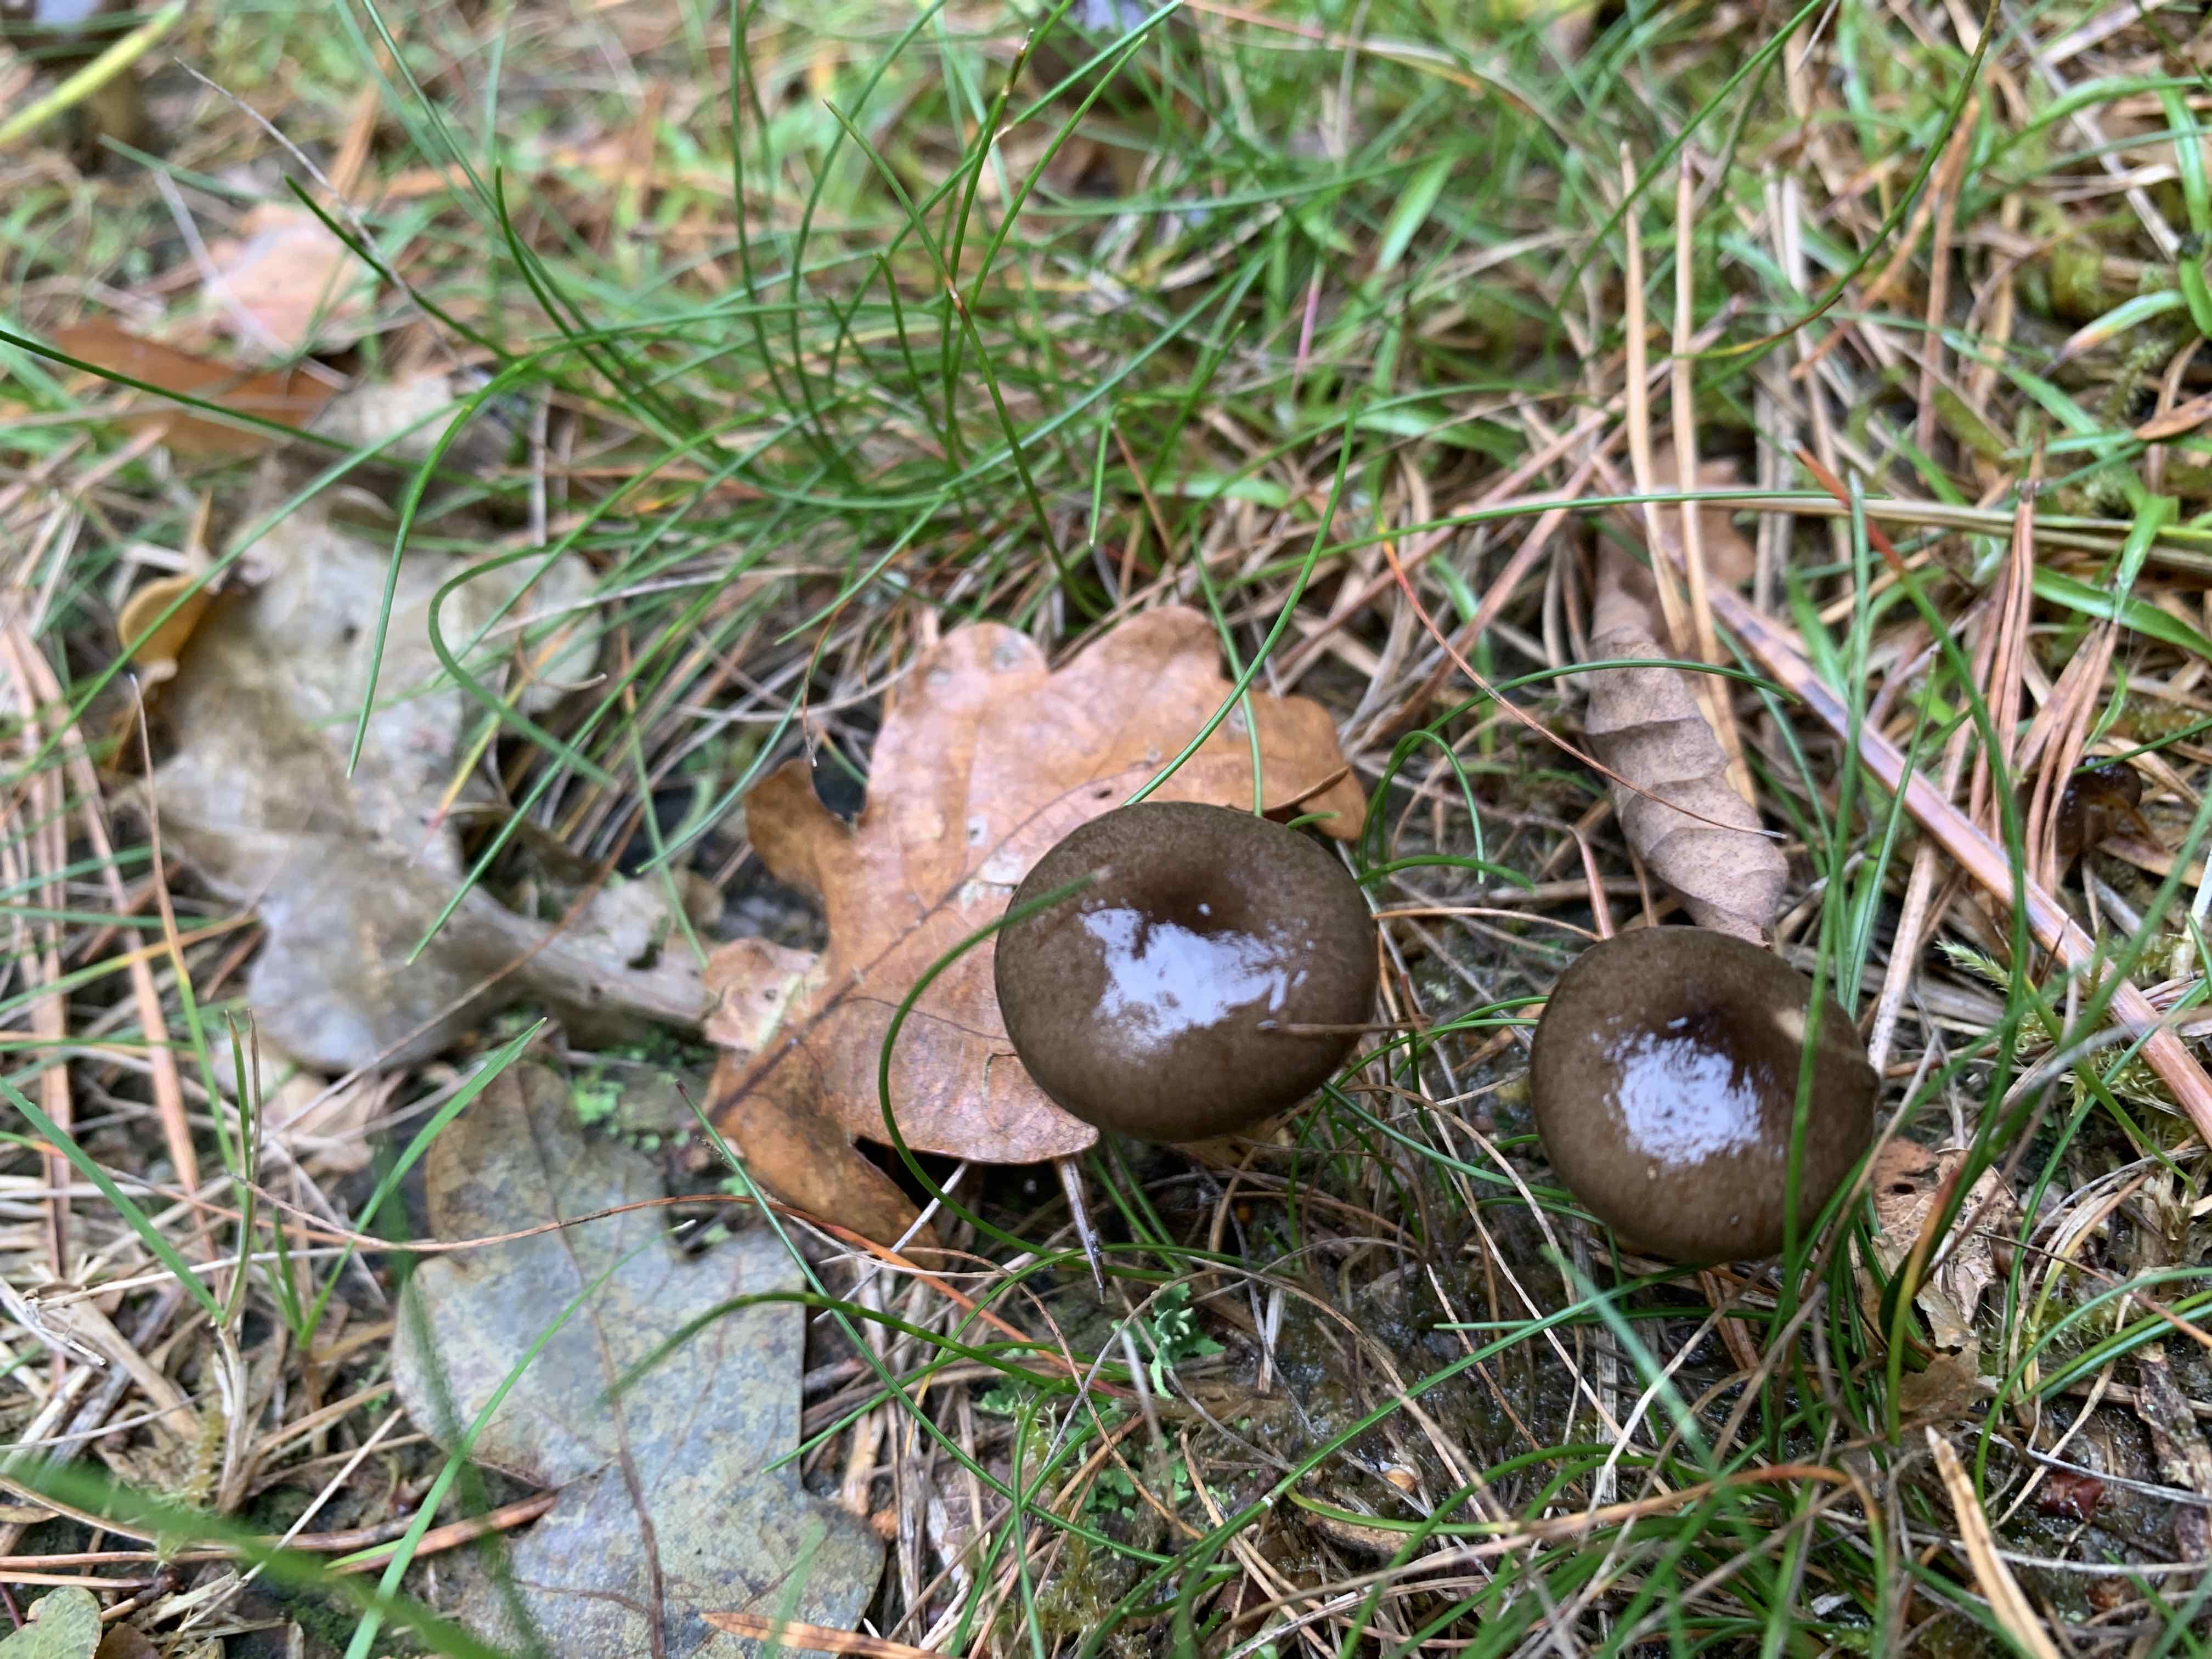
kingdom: Fungi
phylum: Basidiomycota
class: Agaricomycetes
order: Agaricales
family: Hygrophoraceae
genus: Hygrophorus
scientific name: Hygrophorus hypothejus
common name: frost-sneglehat
